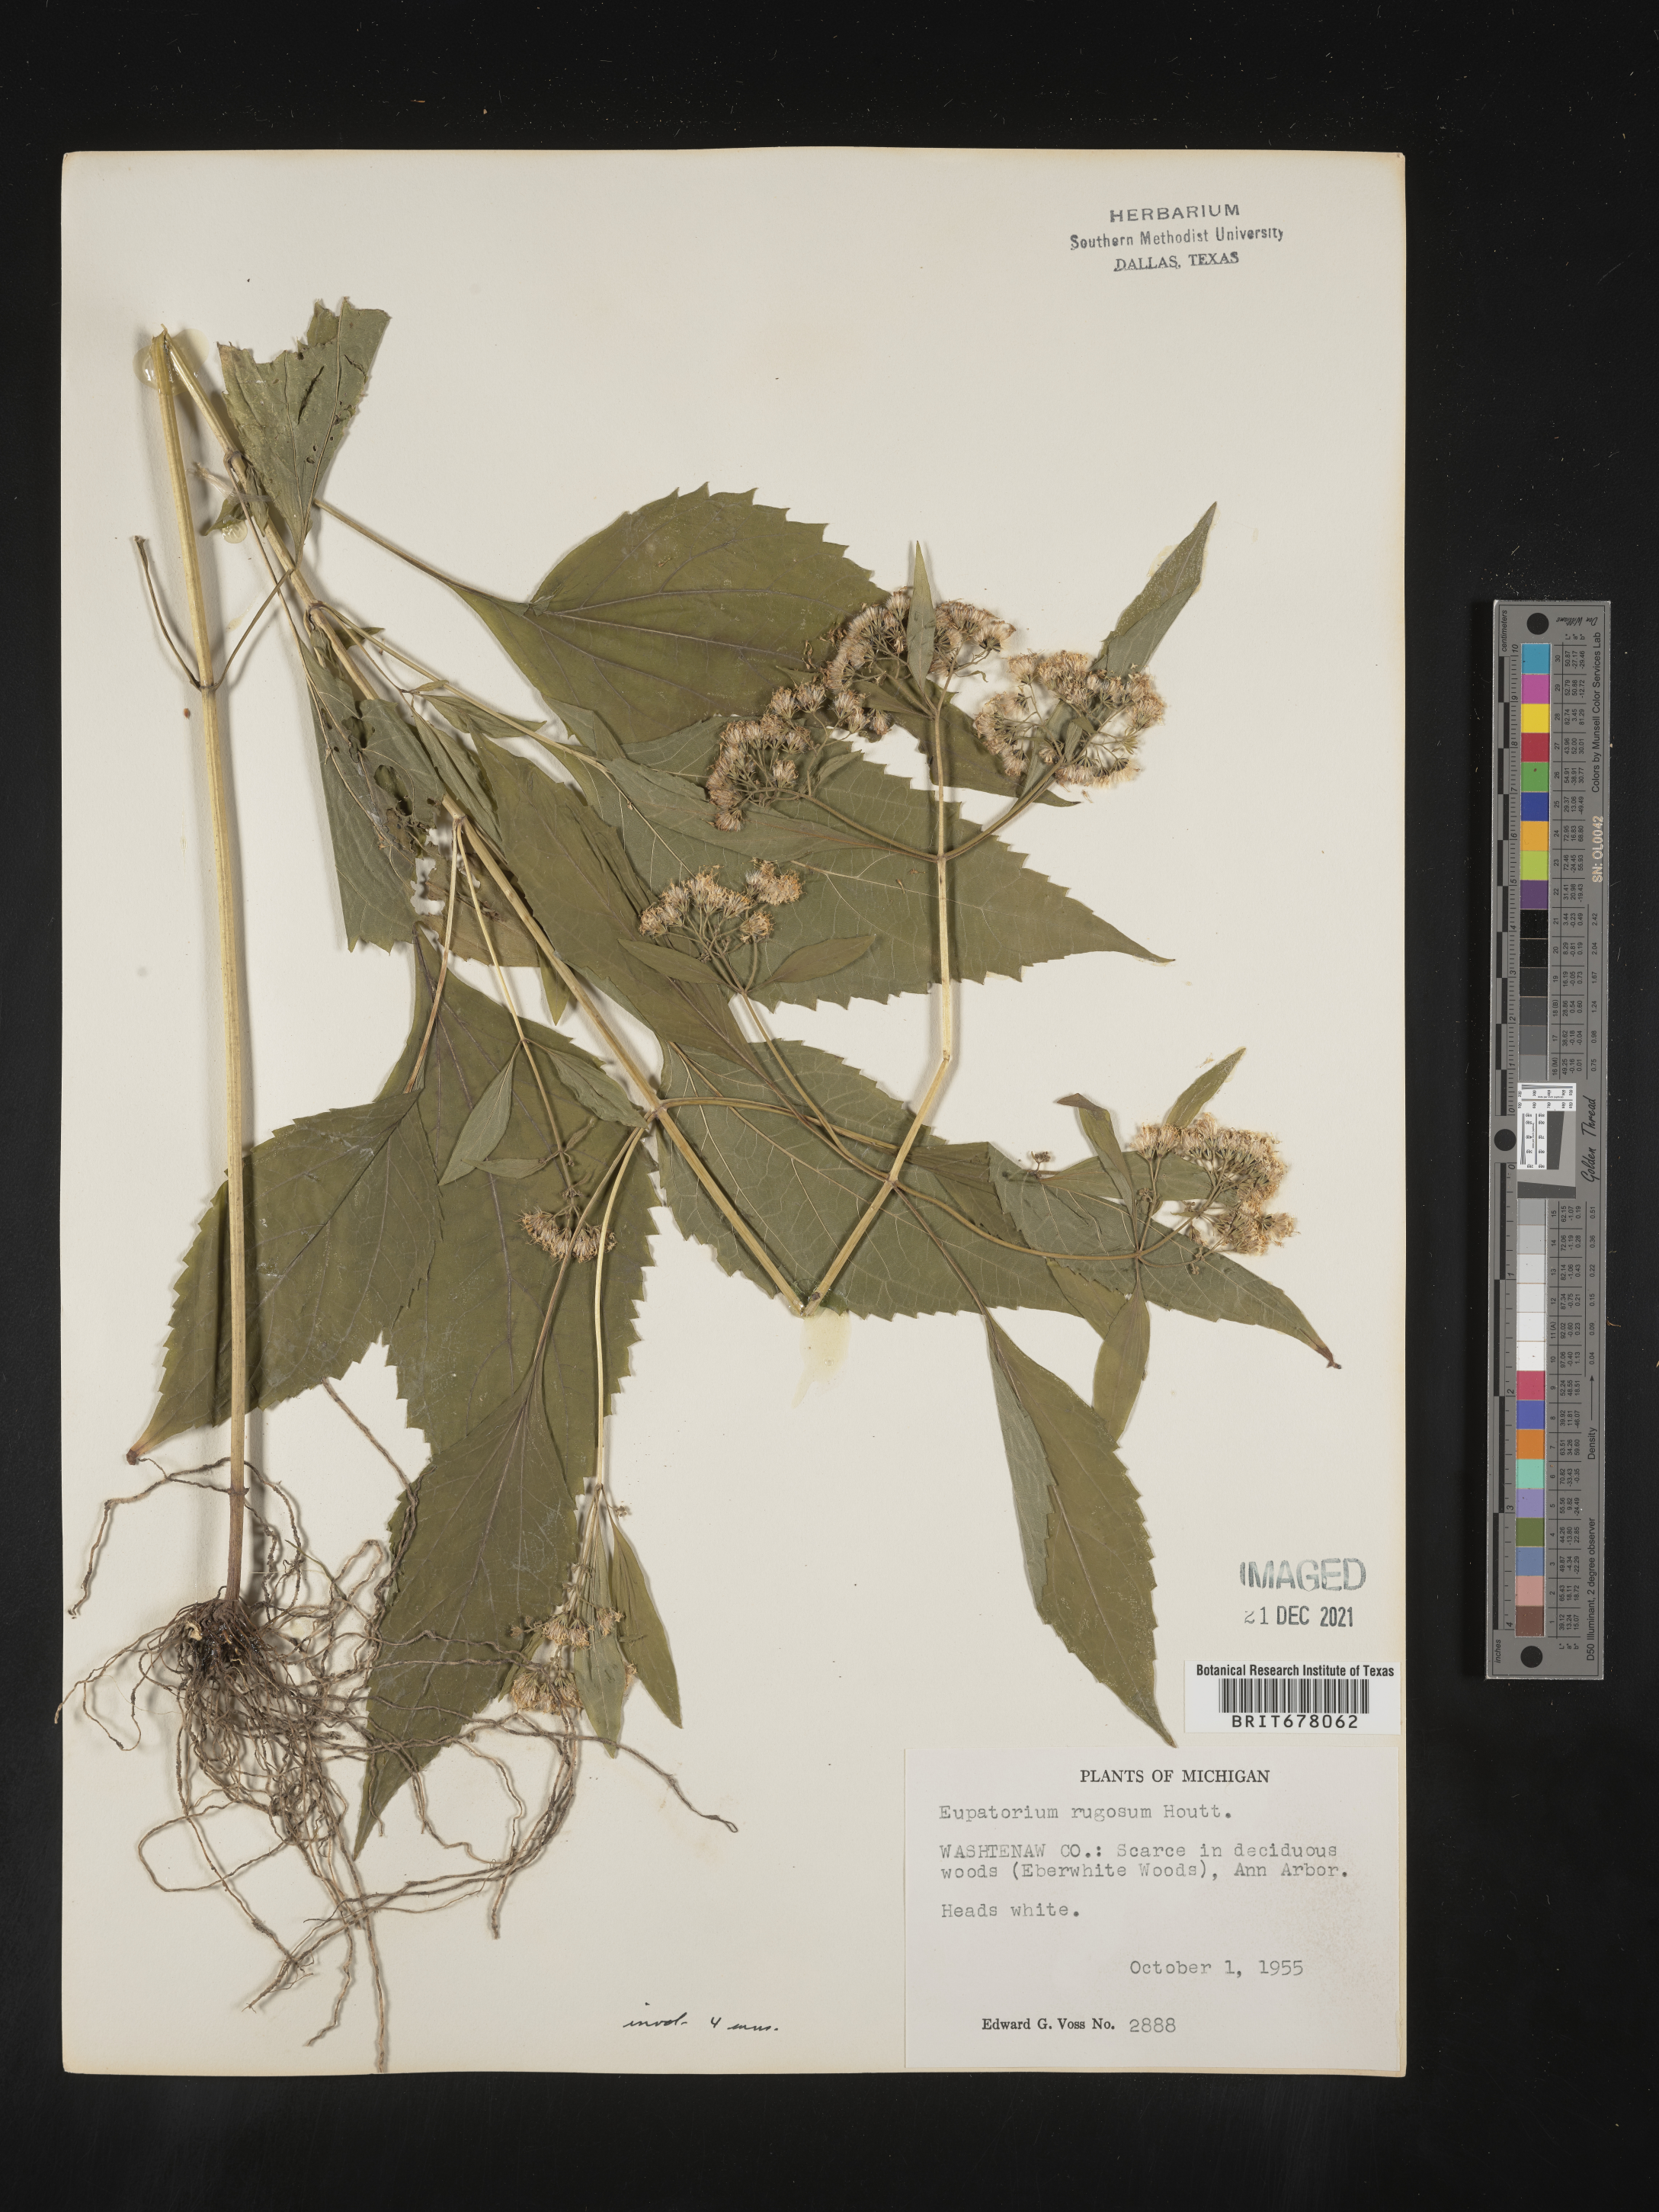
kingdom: Plantae
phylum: Tracheophyta
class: Magnoliopsida
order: Asterales
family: Asteraceae
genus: Eupatorium
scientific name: Eupatorium
